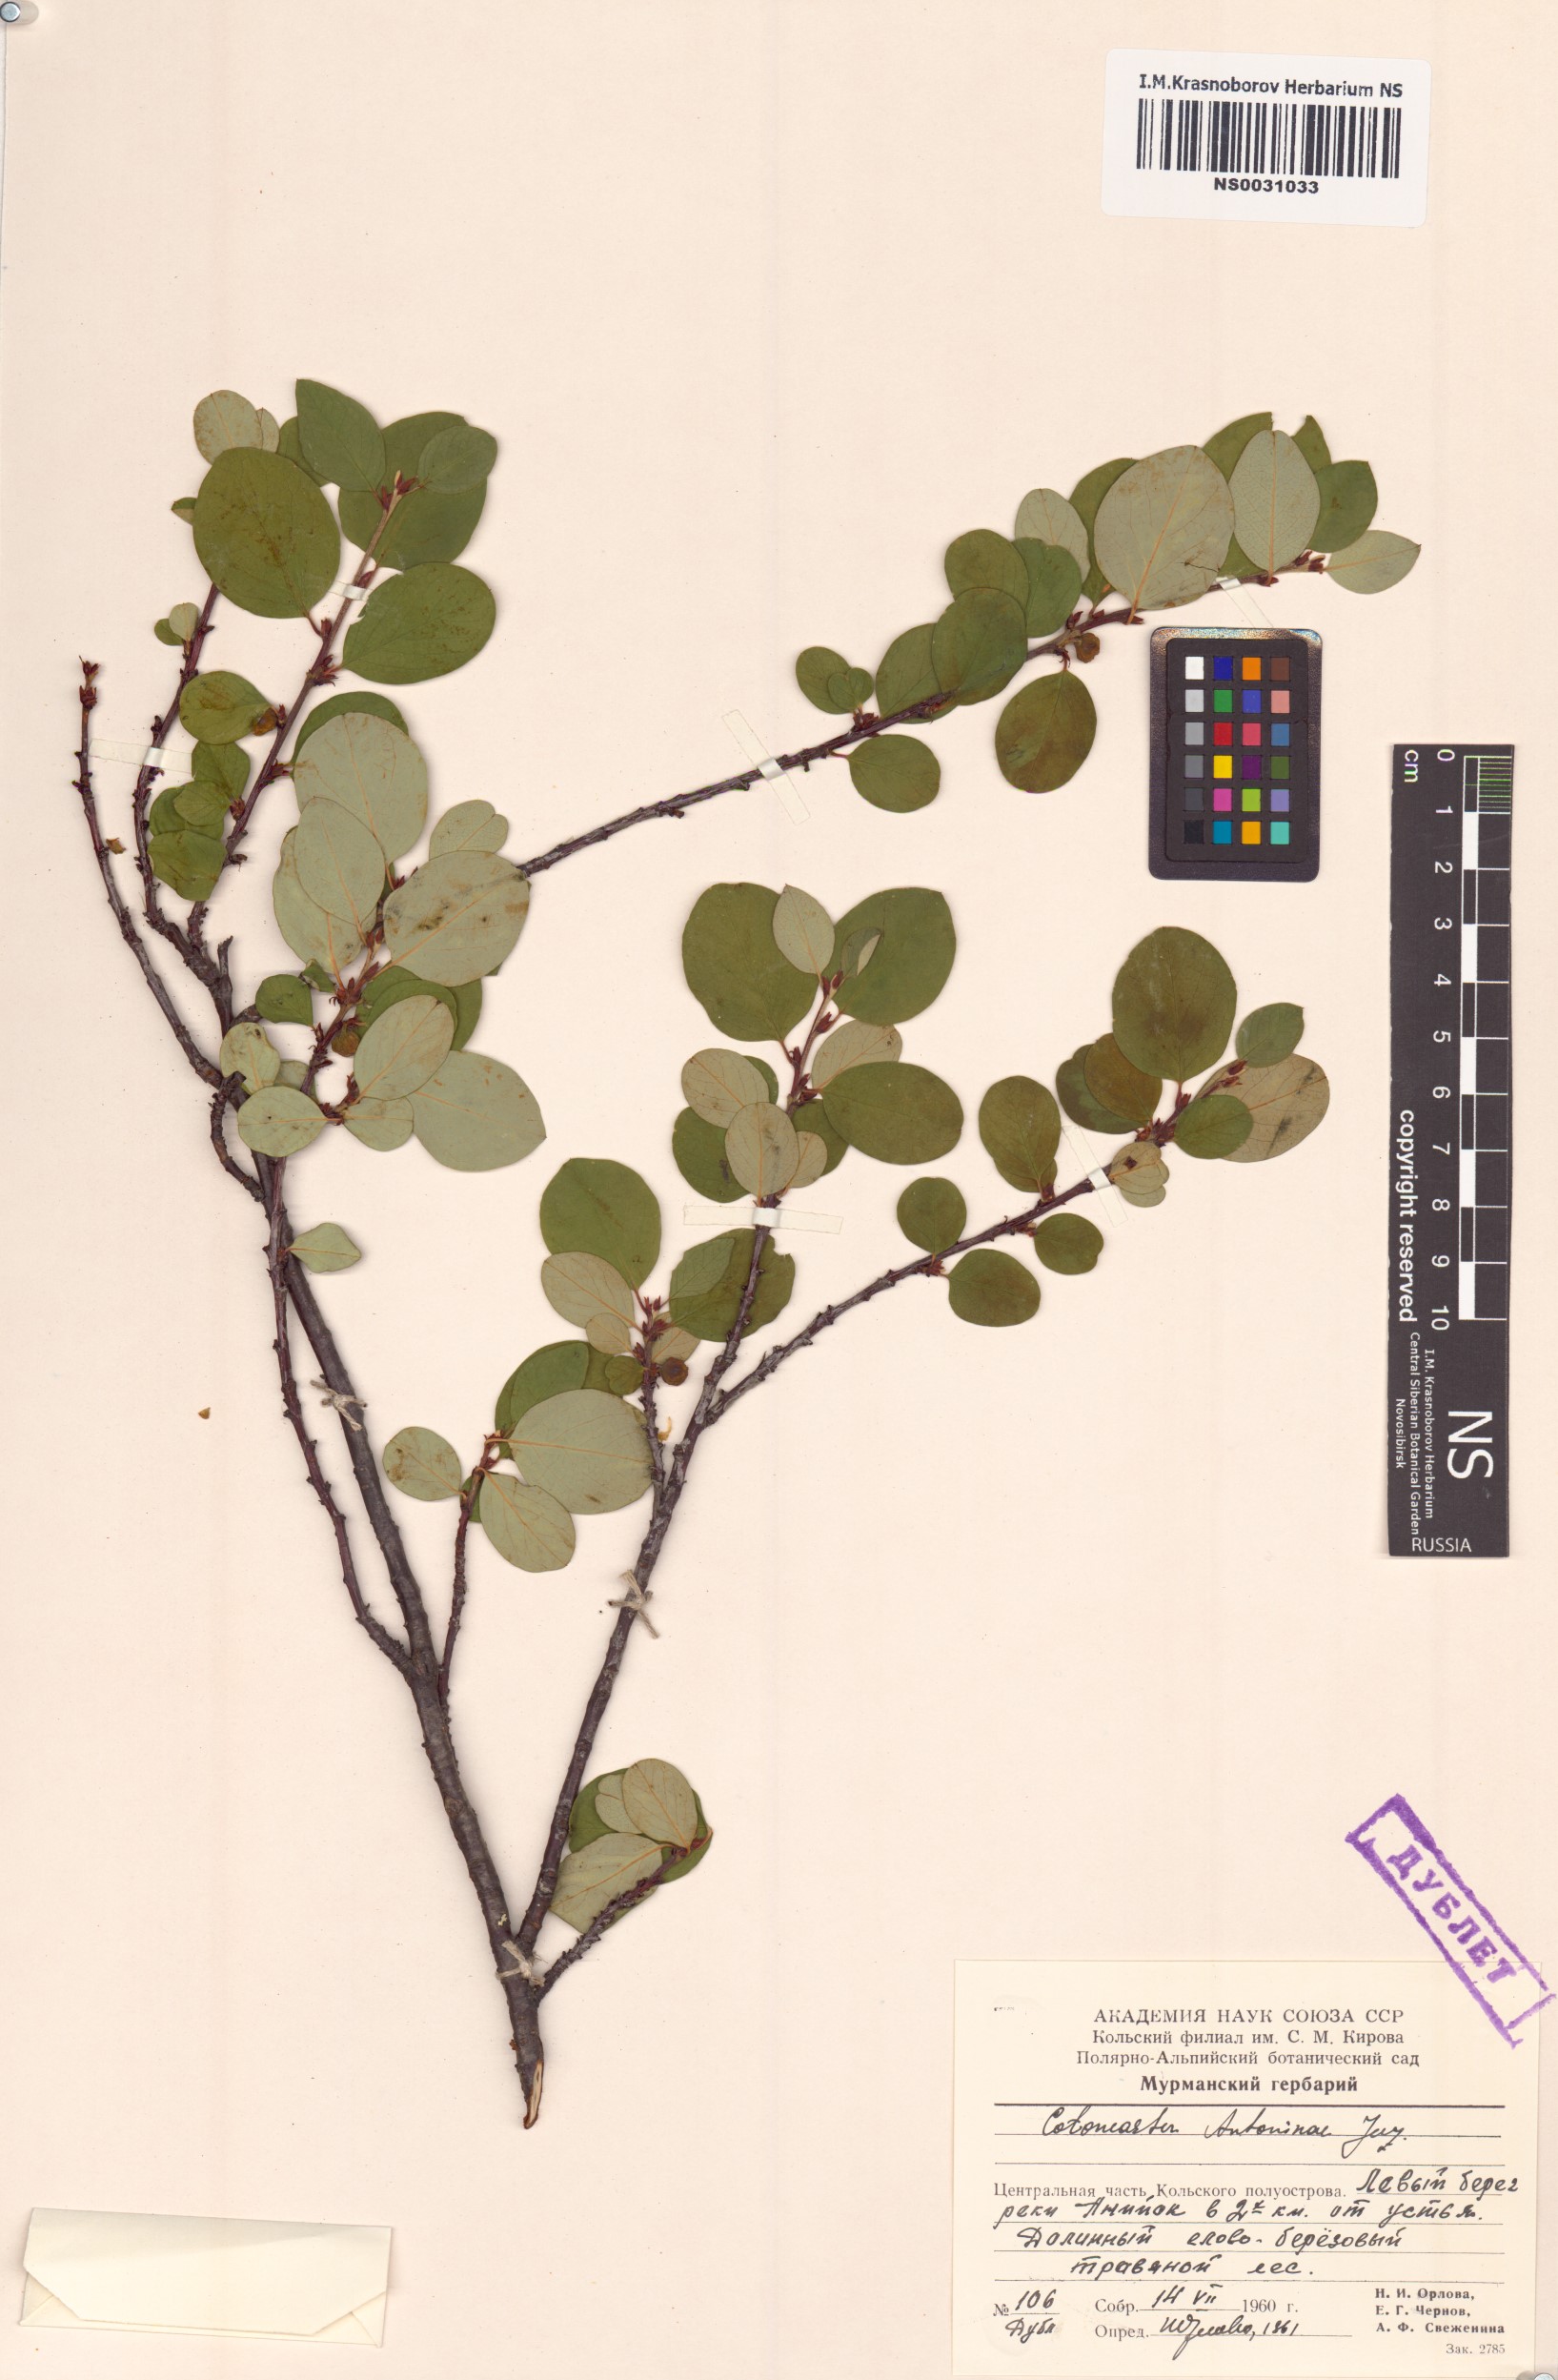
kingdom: Plantae
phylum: Tracheophyta
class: Magnoliopsida
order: Rosales
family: Rosaceae
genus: Cotoneaster
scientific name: Cotoneaster laxiflorus
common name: Black-fruit cotoneaster
